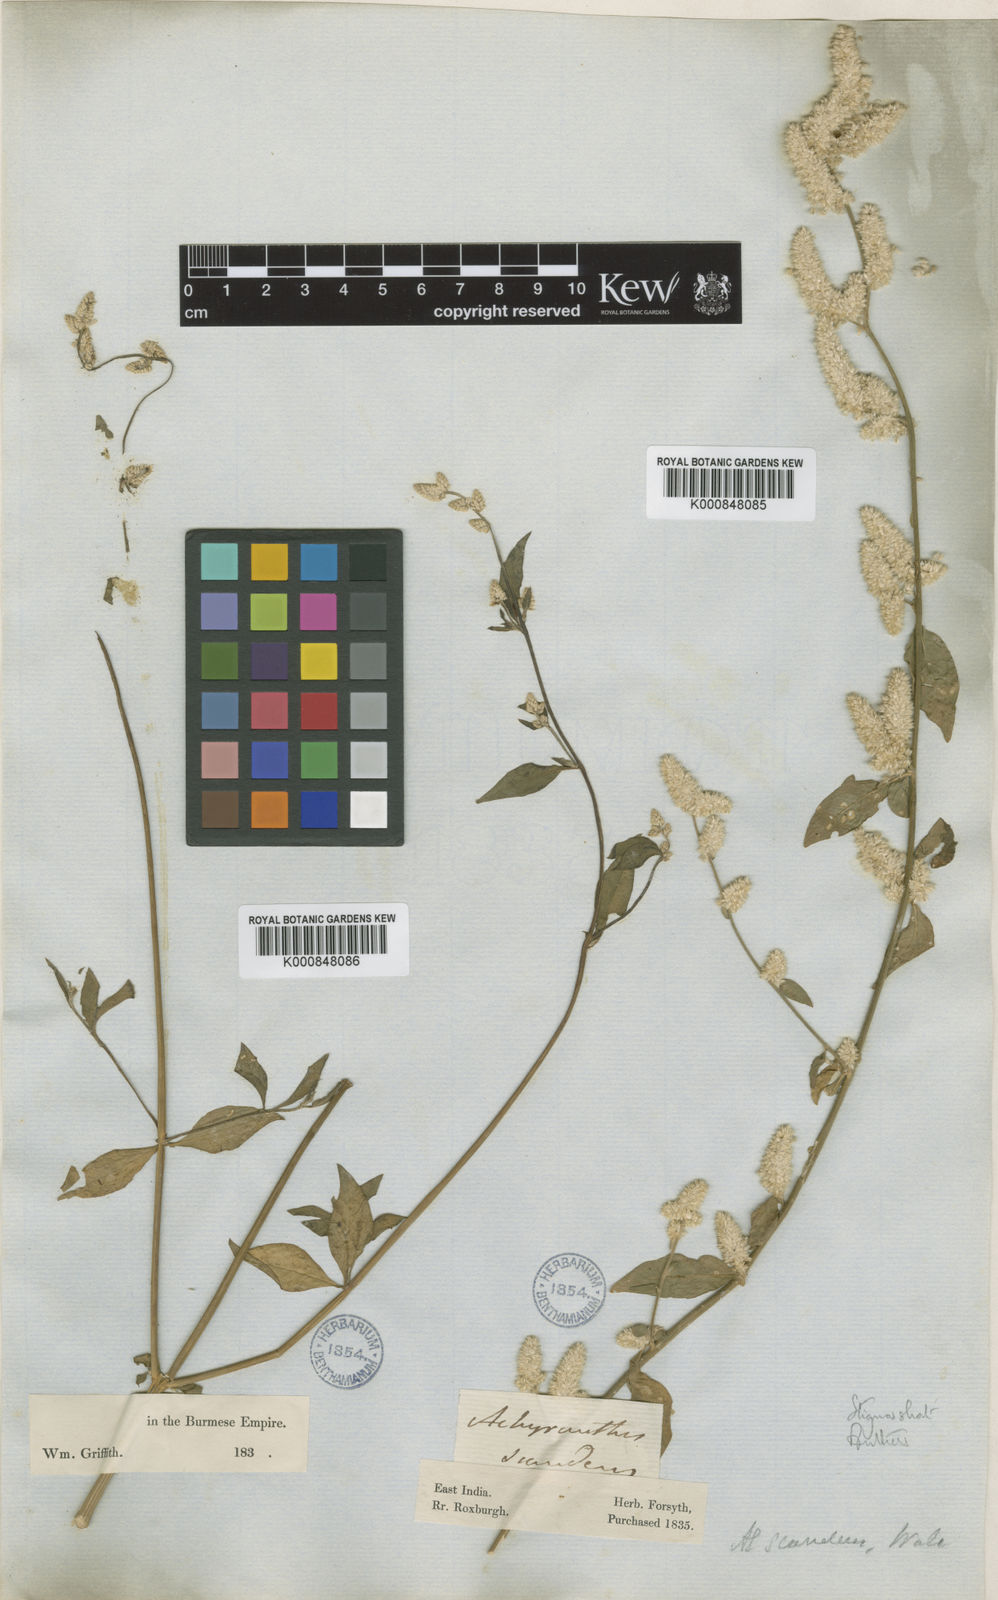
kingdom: Plantae
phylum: Tracheophyta
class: Magnoliopsida
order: Caryophyllales
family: Amaranthaceae
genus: Ouret
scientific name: Ouret sanguinolenta
